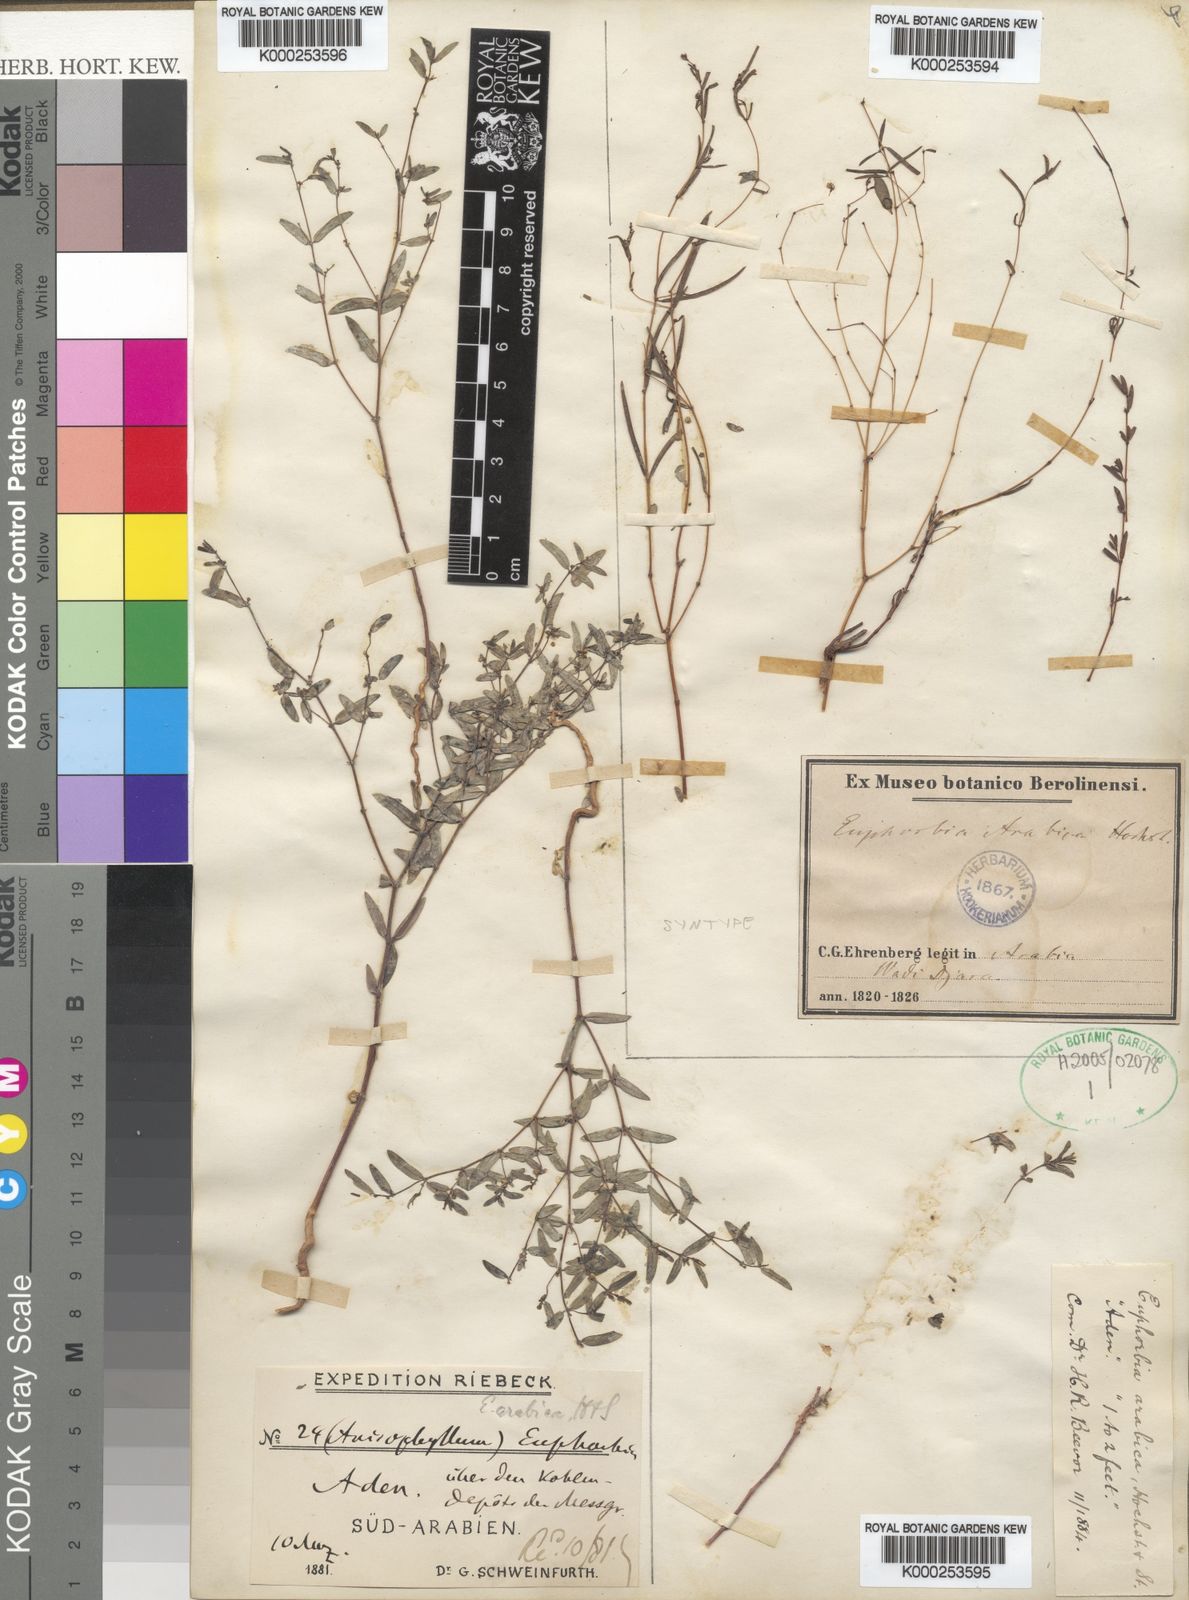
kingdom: Plantae
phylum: Tracheophyta
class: Magnoliopsida
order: Malpighiales
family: Euphorbiaceae
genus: Euphorbia
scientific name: Euphorbia arabica
